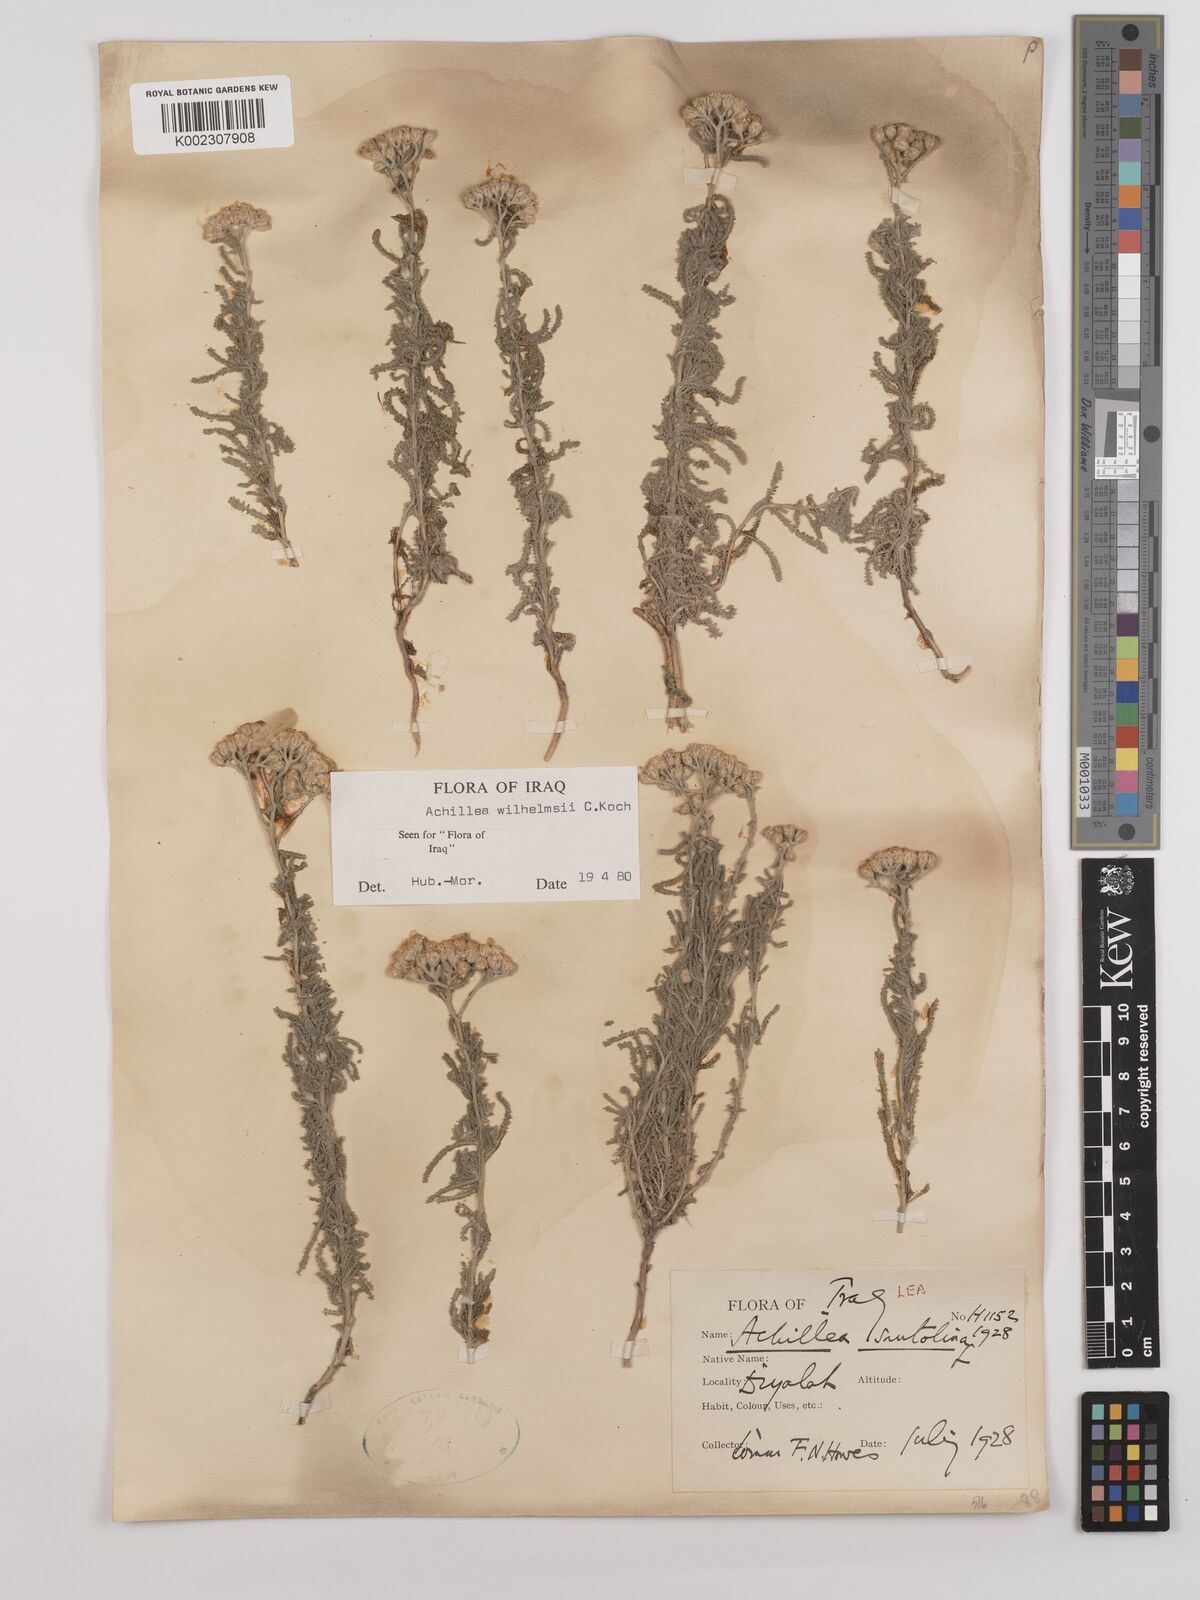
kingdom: Plantae
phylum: Tracheophyta
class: Magnoliopsida
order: Asterales
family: Asteraceae
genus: Achillea
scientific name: Achillea wilhelmsii
